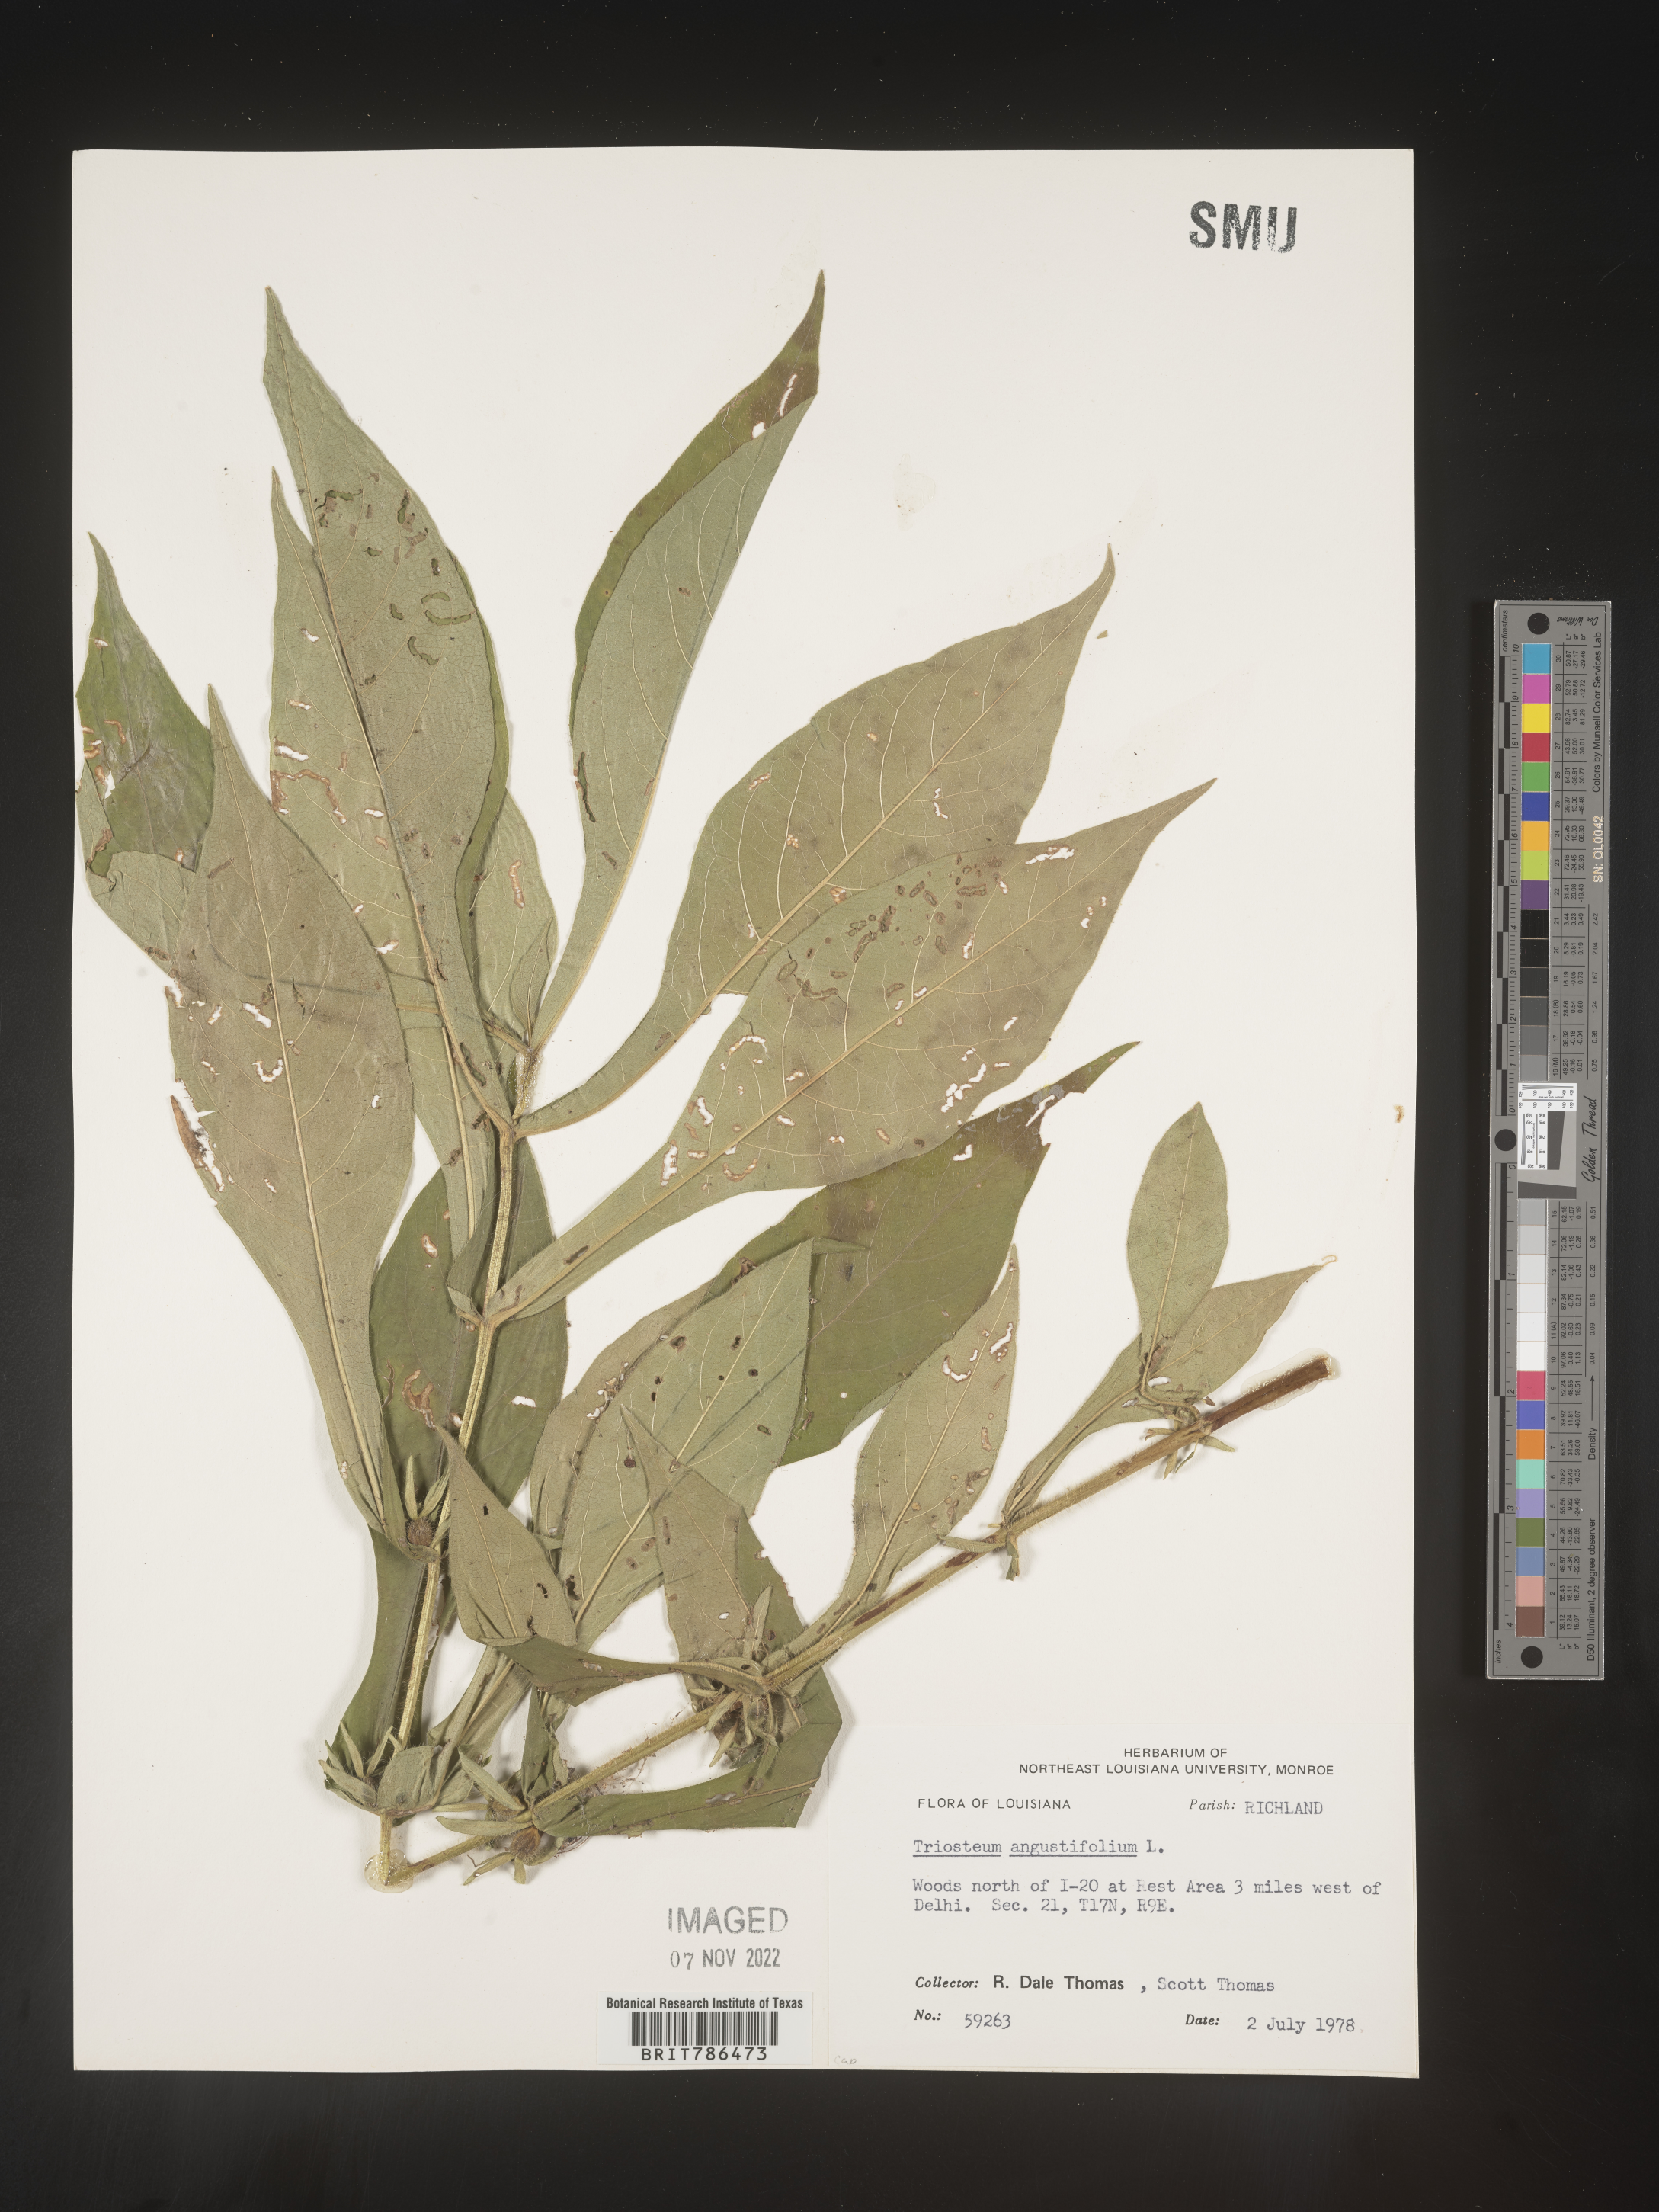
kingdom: Plantae
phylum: Tracheophyta
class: Magnoliopsida
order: Dipsacales
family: Caprifoliaceae
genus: Triosteum
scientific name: Triosteum angustifolium
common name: Narrow-leaved horse-gentian
